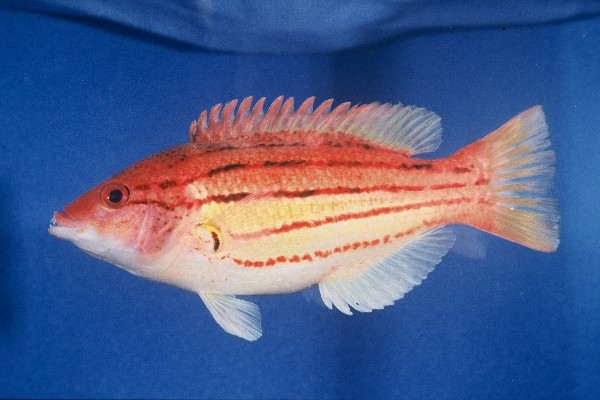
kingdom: Animalia
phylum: Chordata
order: Perciformes
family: Labridae
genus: Bodianus
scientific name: Bodianus trilineatus
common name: Fourline hogfish
